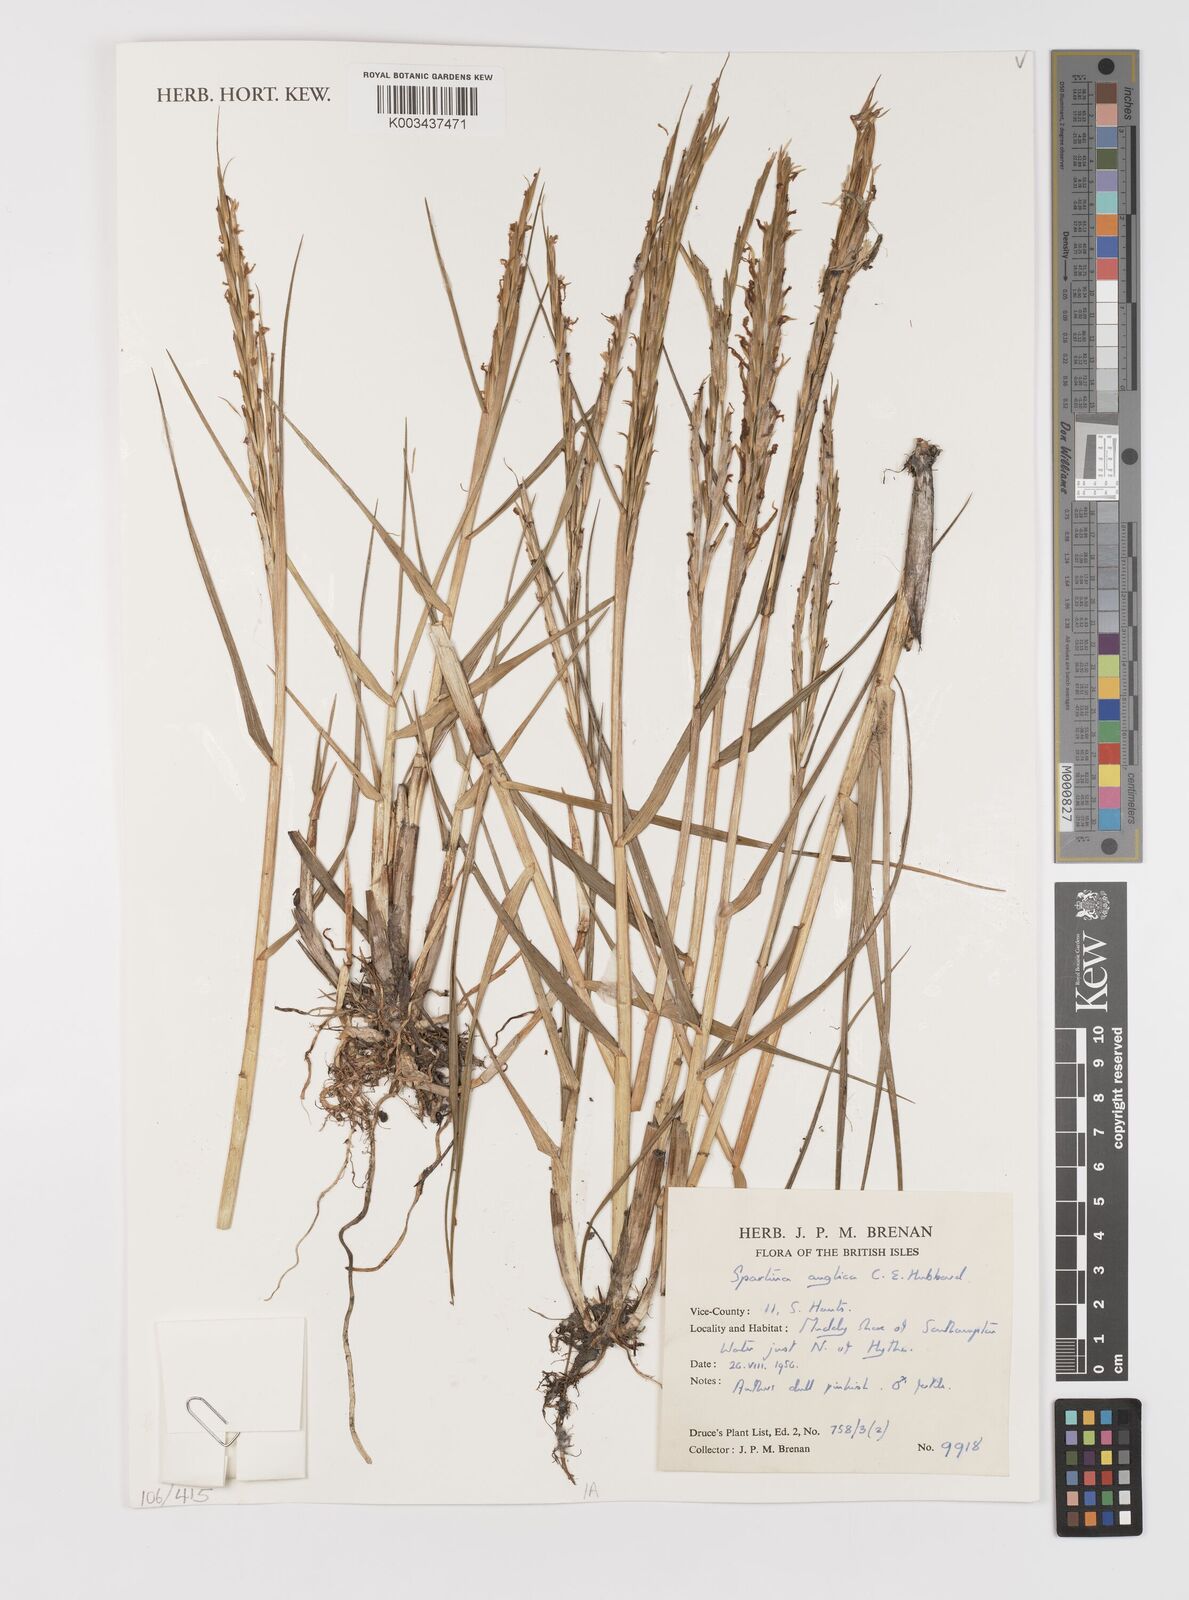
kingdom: Plantae
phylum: Tracheophyta
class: Liliopsida
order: Poales
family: Poaceae
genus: Sporobolus
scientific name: Sporobolus anglicus
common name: English cordgrass
